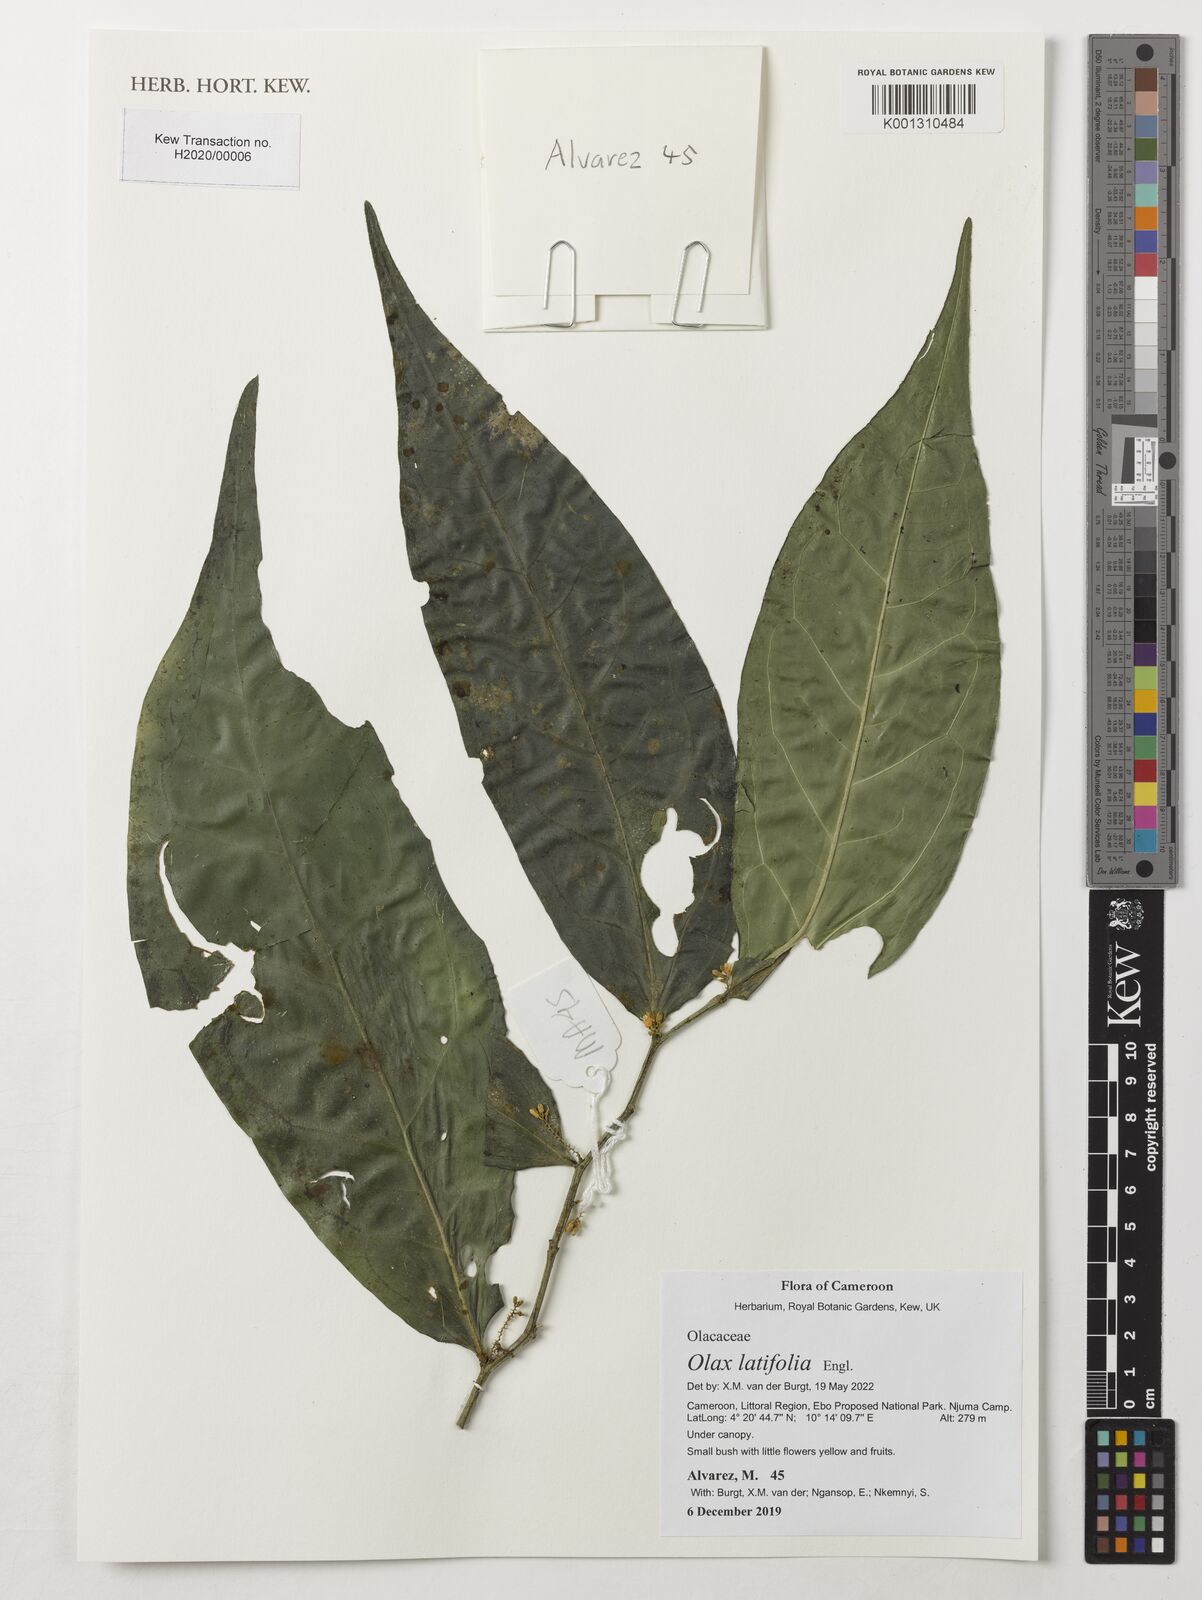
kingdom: Plantae
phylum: Tracheophyta
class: Magnoliopsida
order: Santalales
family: Olacaceae
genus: Olax
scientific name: Olax latifolia
